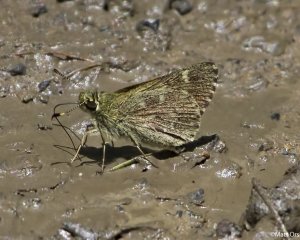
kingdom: Animalia
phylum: Arthropoda
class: Insecta
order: Lepidoptera
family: Hesperiidae
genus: Mastor
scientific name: Mastor hegon
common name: Pepper and Salt Skipper
